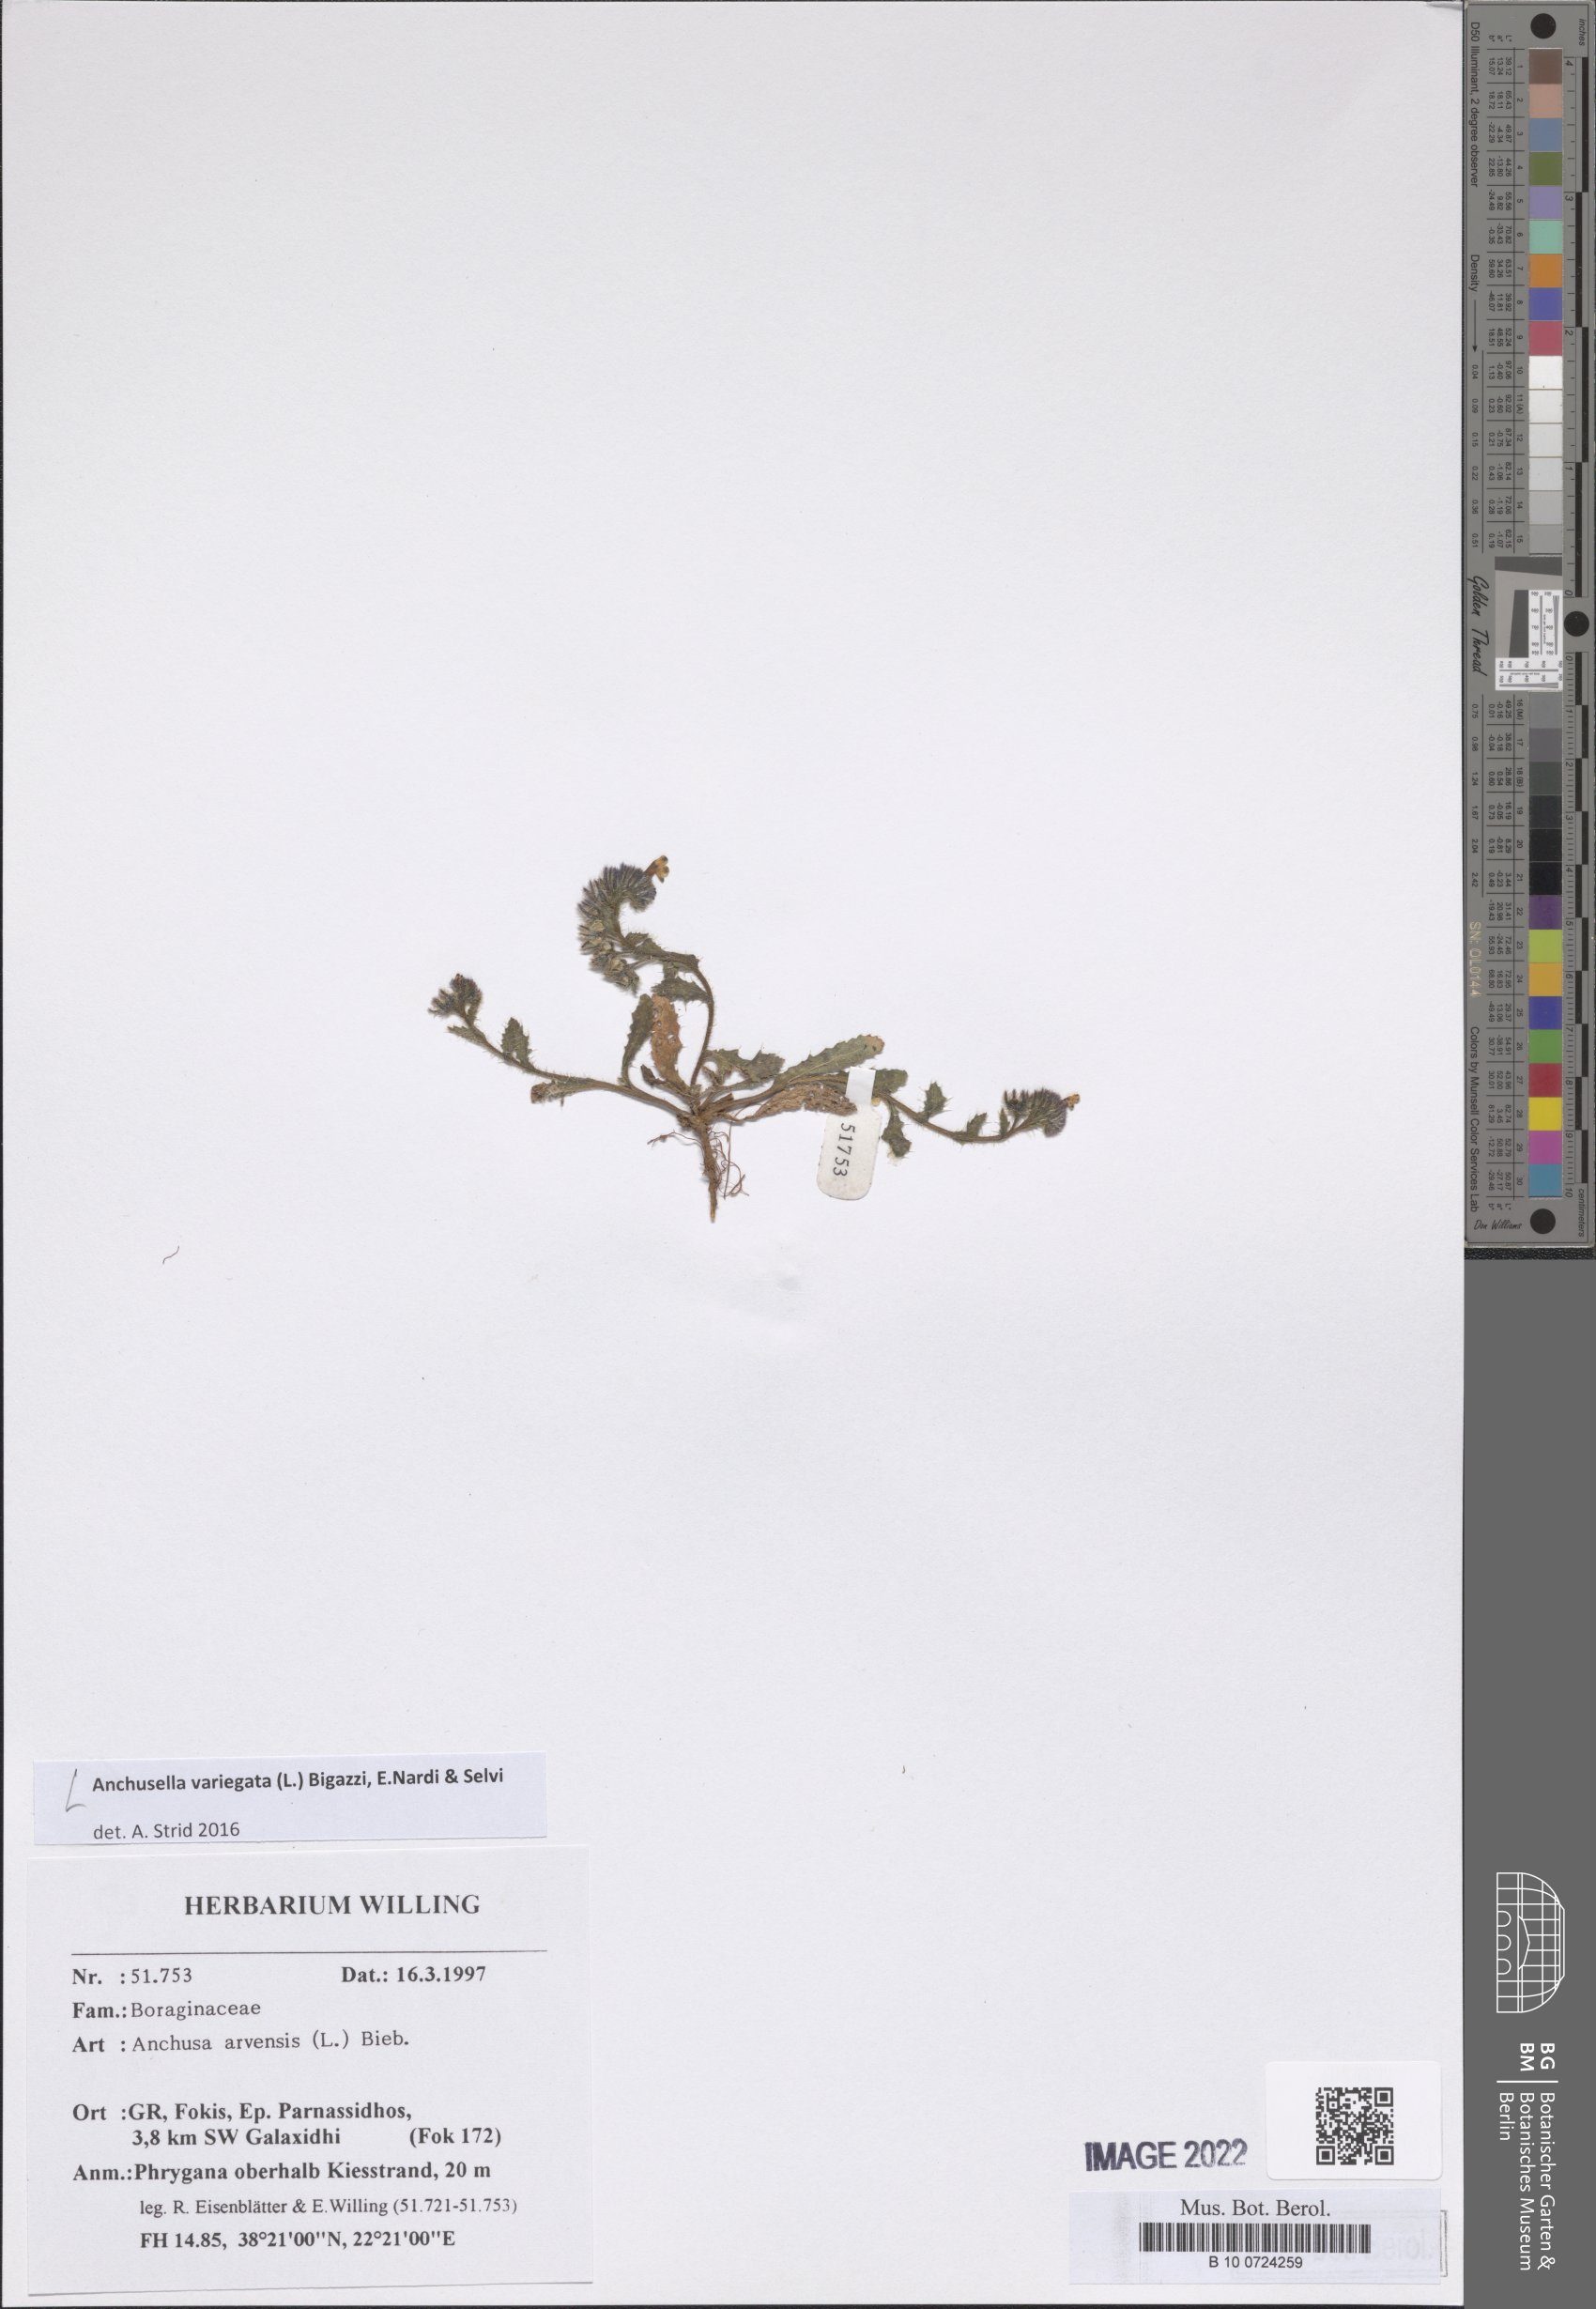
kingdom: Plantae
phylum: Tracheophyta
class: Magnoliopsida
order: Boraginales
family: Boraginaceae
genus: Anchusella
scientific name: Anchusella variegata
